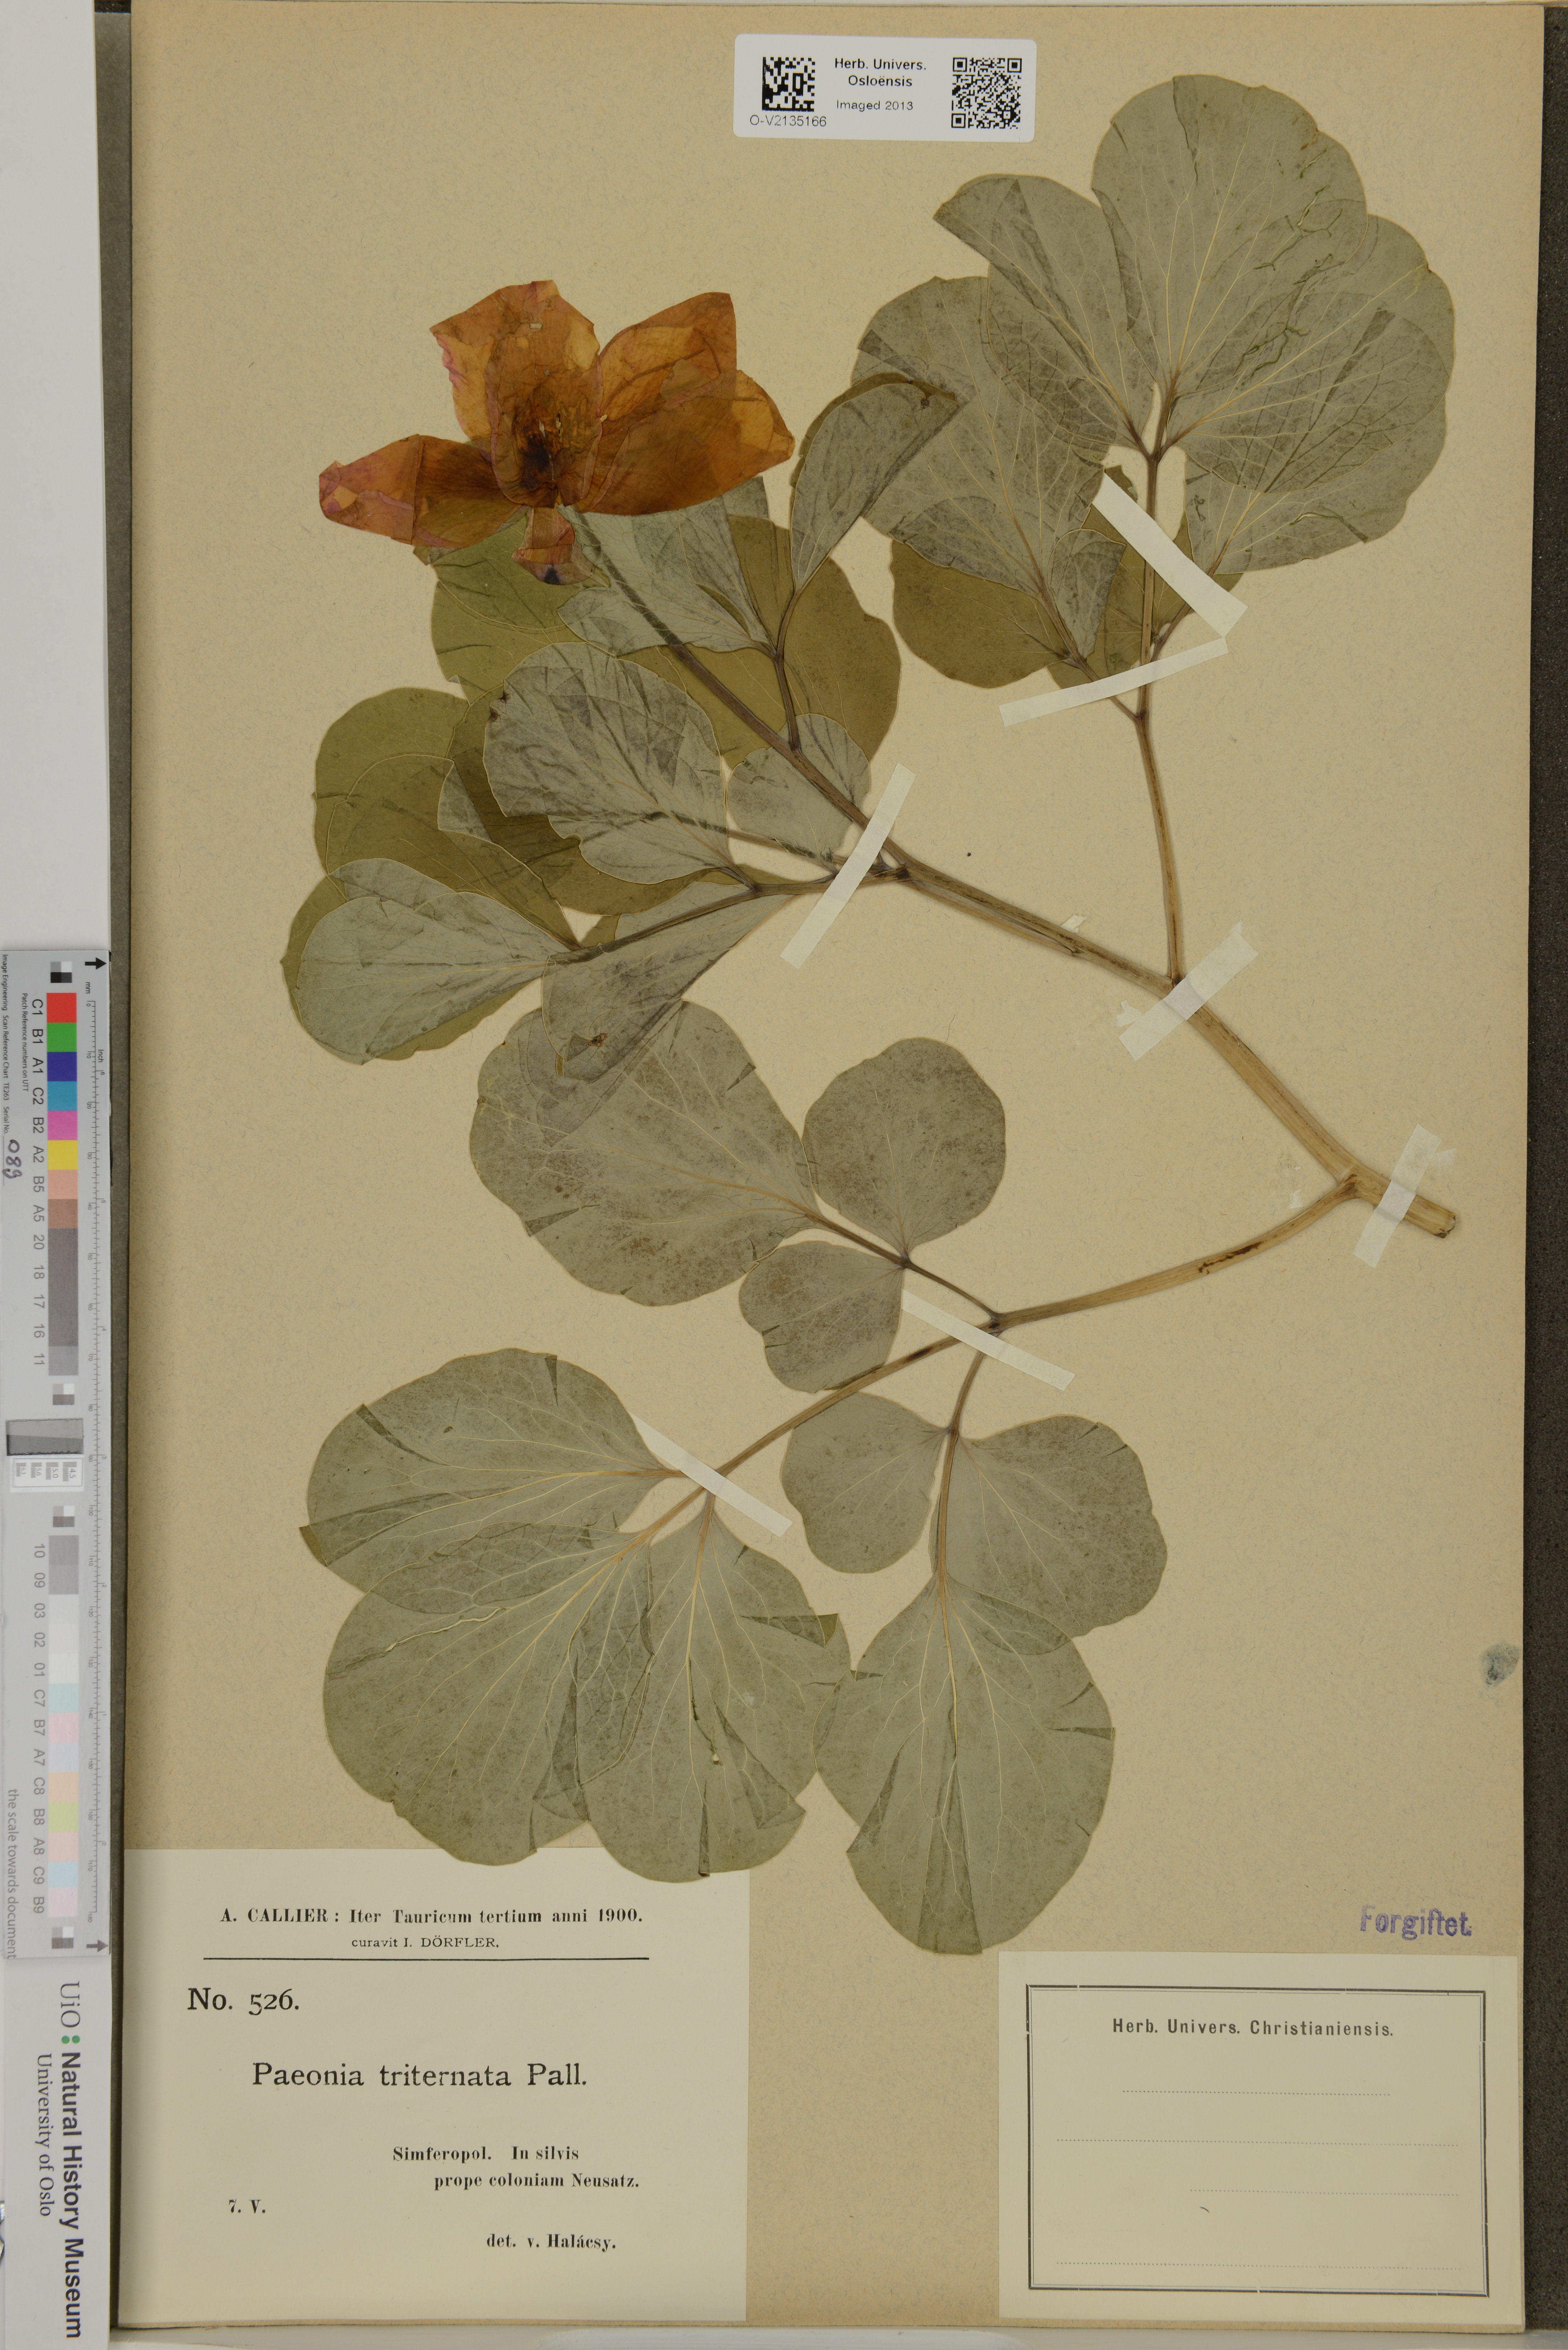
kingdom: Plantae
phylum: Tracheophyta
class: Magnoliopsida
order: Saxifragales
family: Paeoniaceae
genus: Paeonia
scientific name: Paeonia daurica
